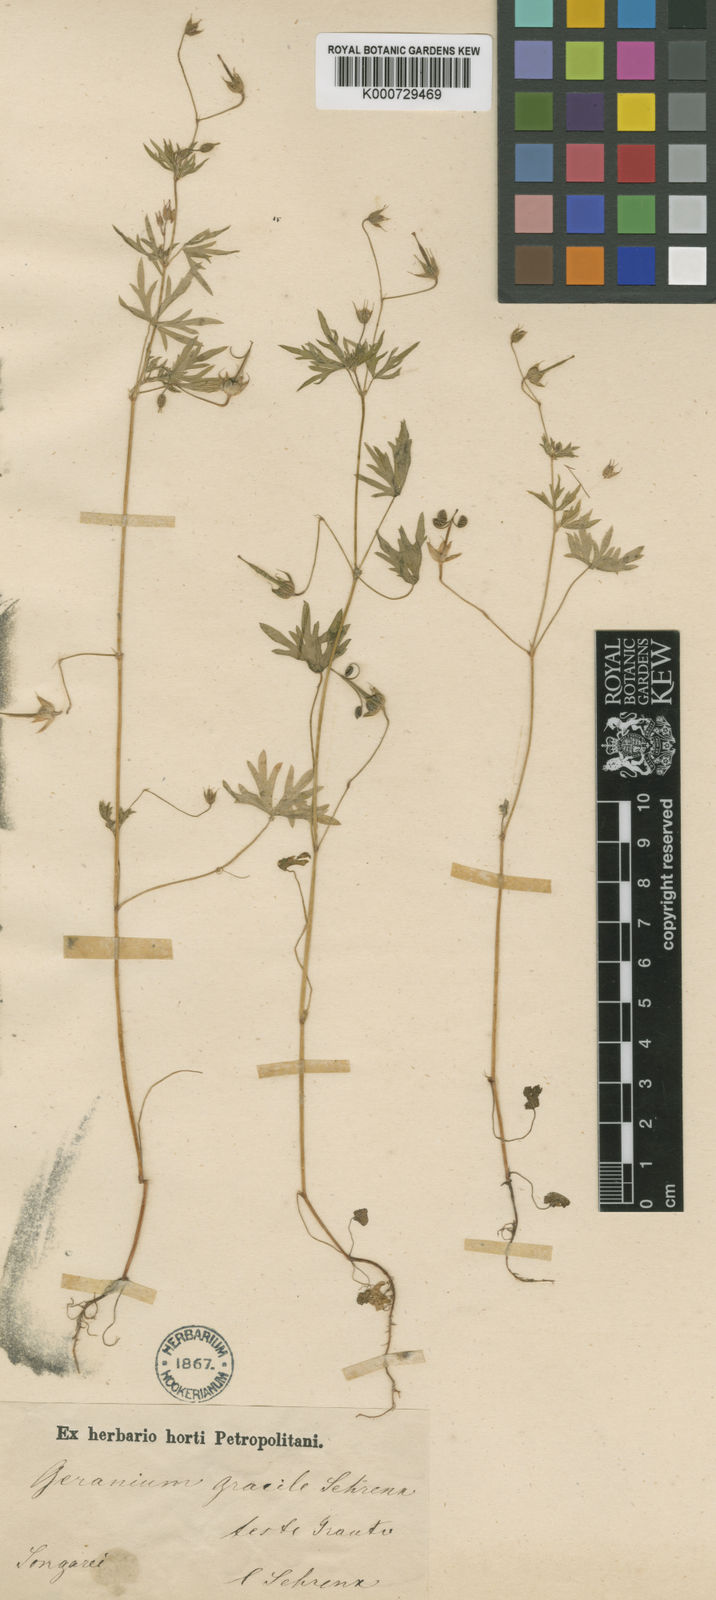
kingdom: Plantae
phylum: Tracheophyta
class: Magnoliopsida
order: Geraniales
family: Geraniaceae
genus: Geranium
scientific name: Geranium gracile
